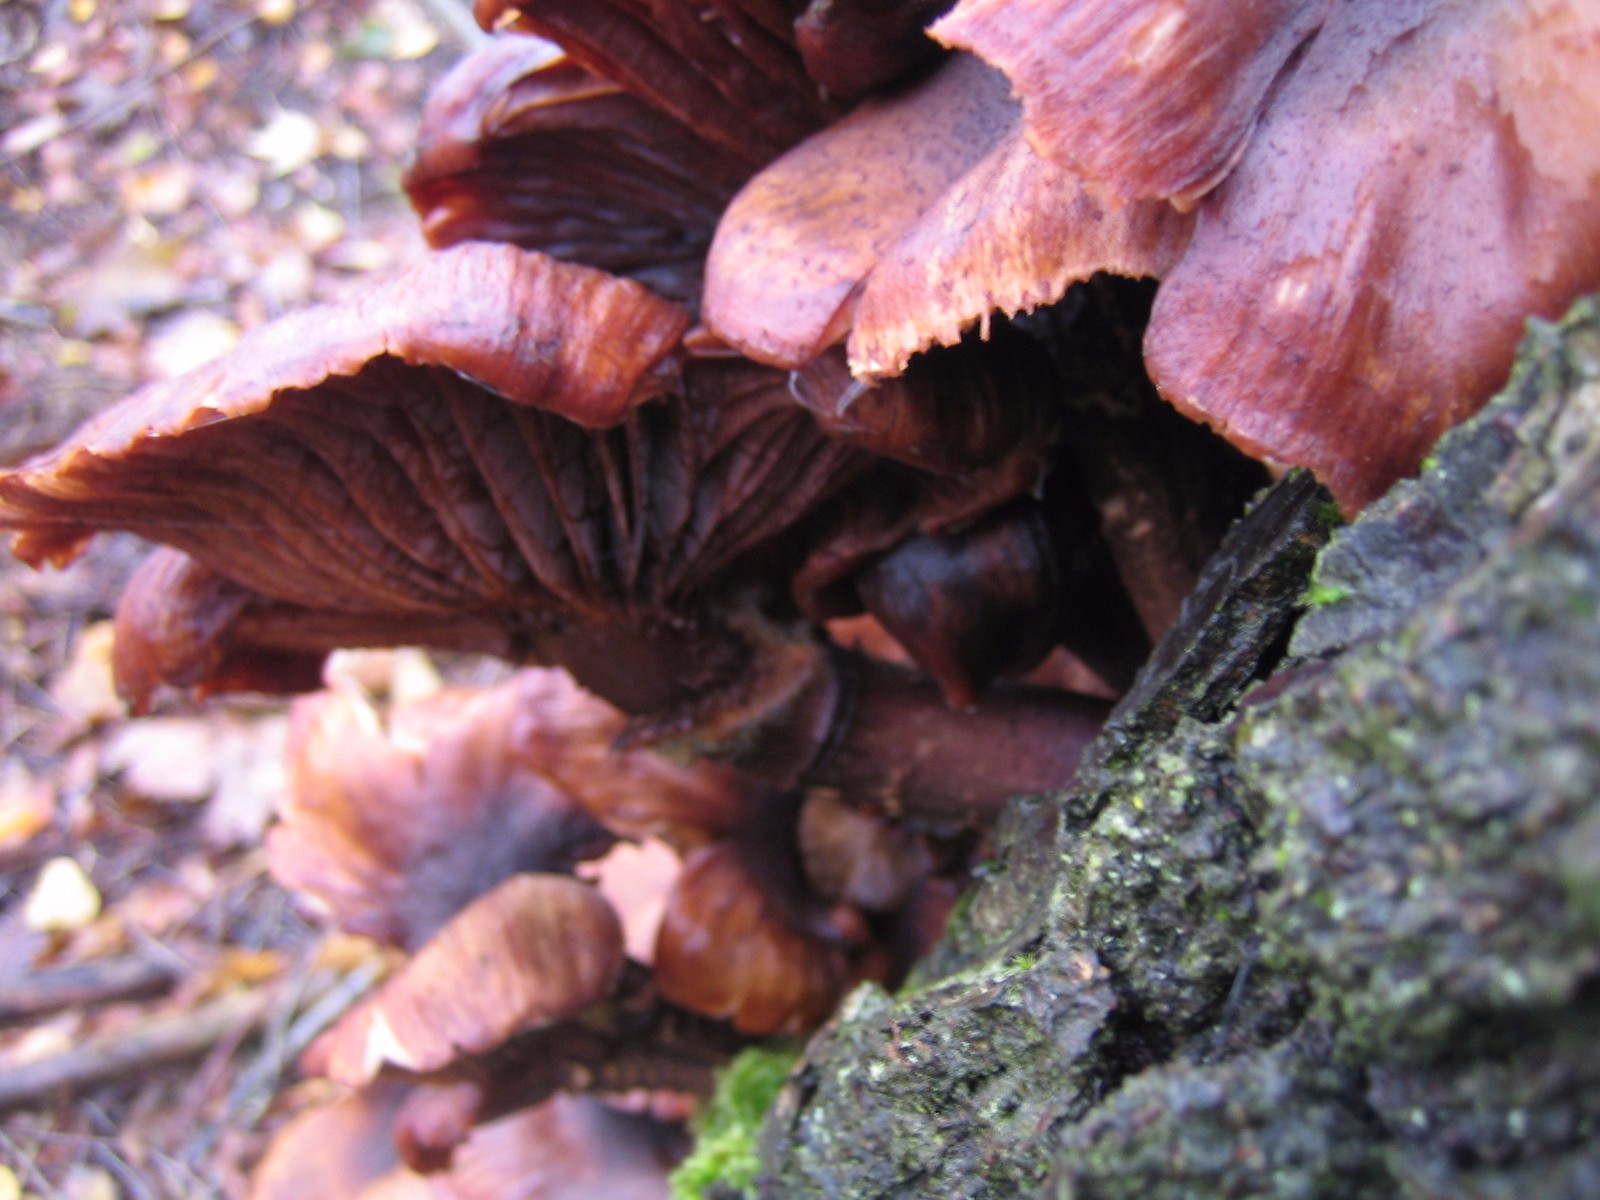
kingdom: Fungi
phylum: Basidiomycota
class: Agaricomycetes
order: Agaricales
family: Physalacriaceae
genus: Armillaria
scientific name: Armillaria
